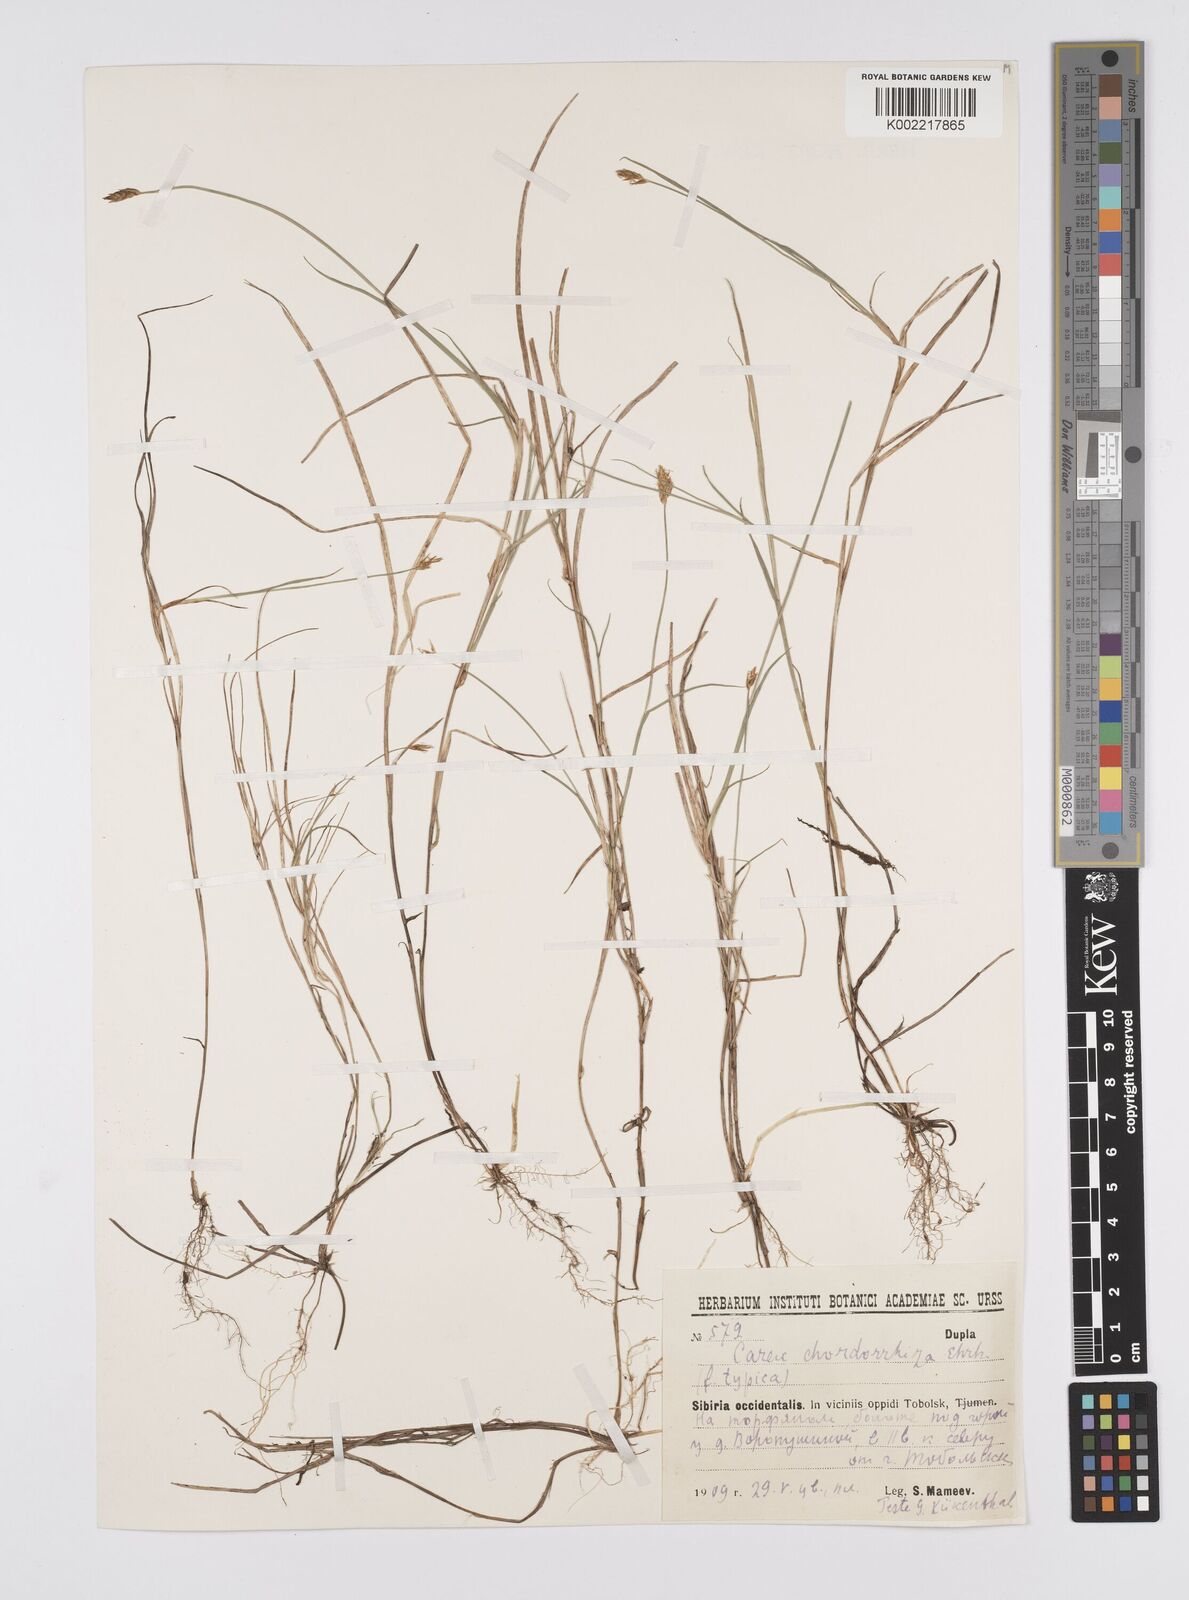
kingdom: Plantae
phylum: Tracheophyta
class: Liliopsida
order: Poales
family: Cyperaceae
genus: Carex
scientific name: Carex
